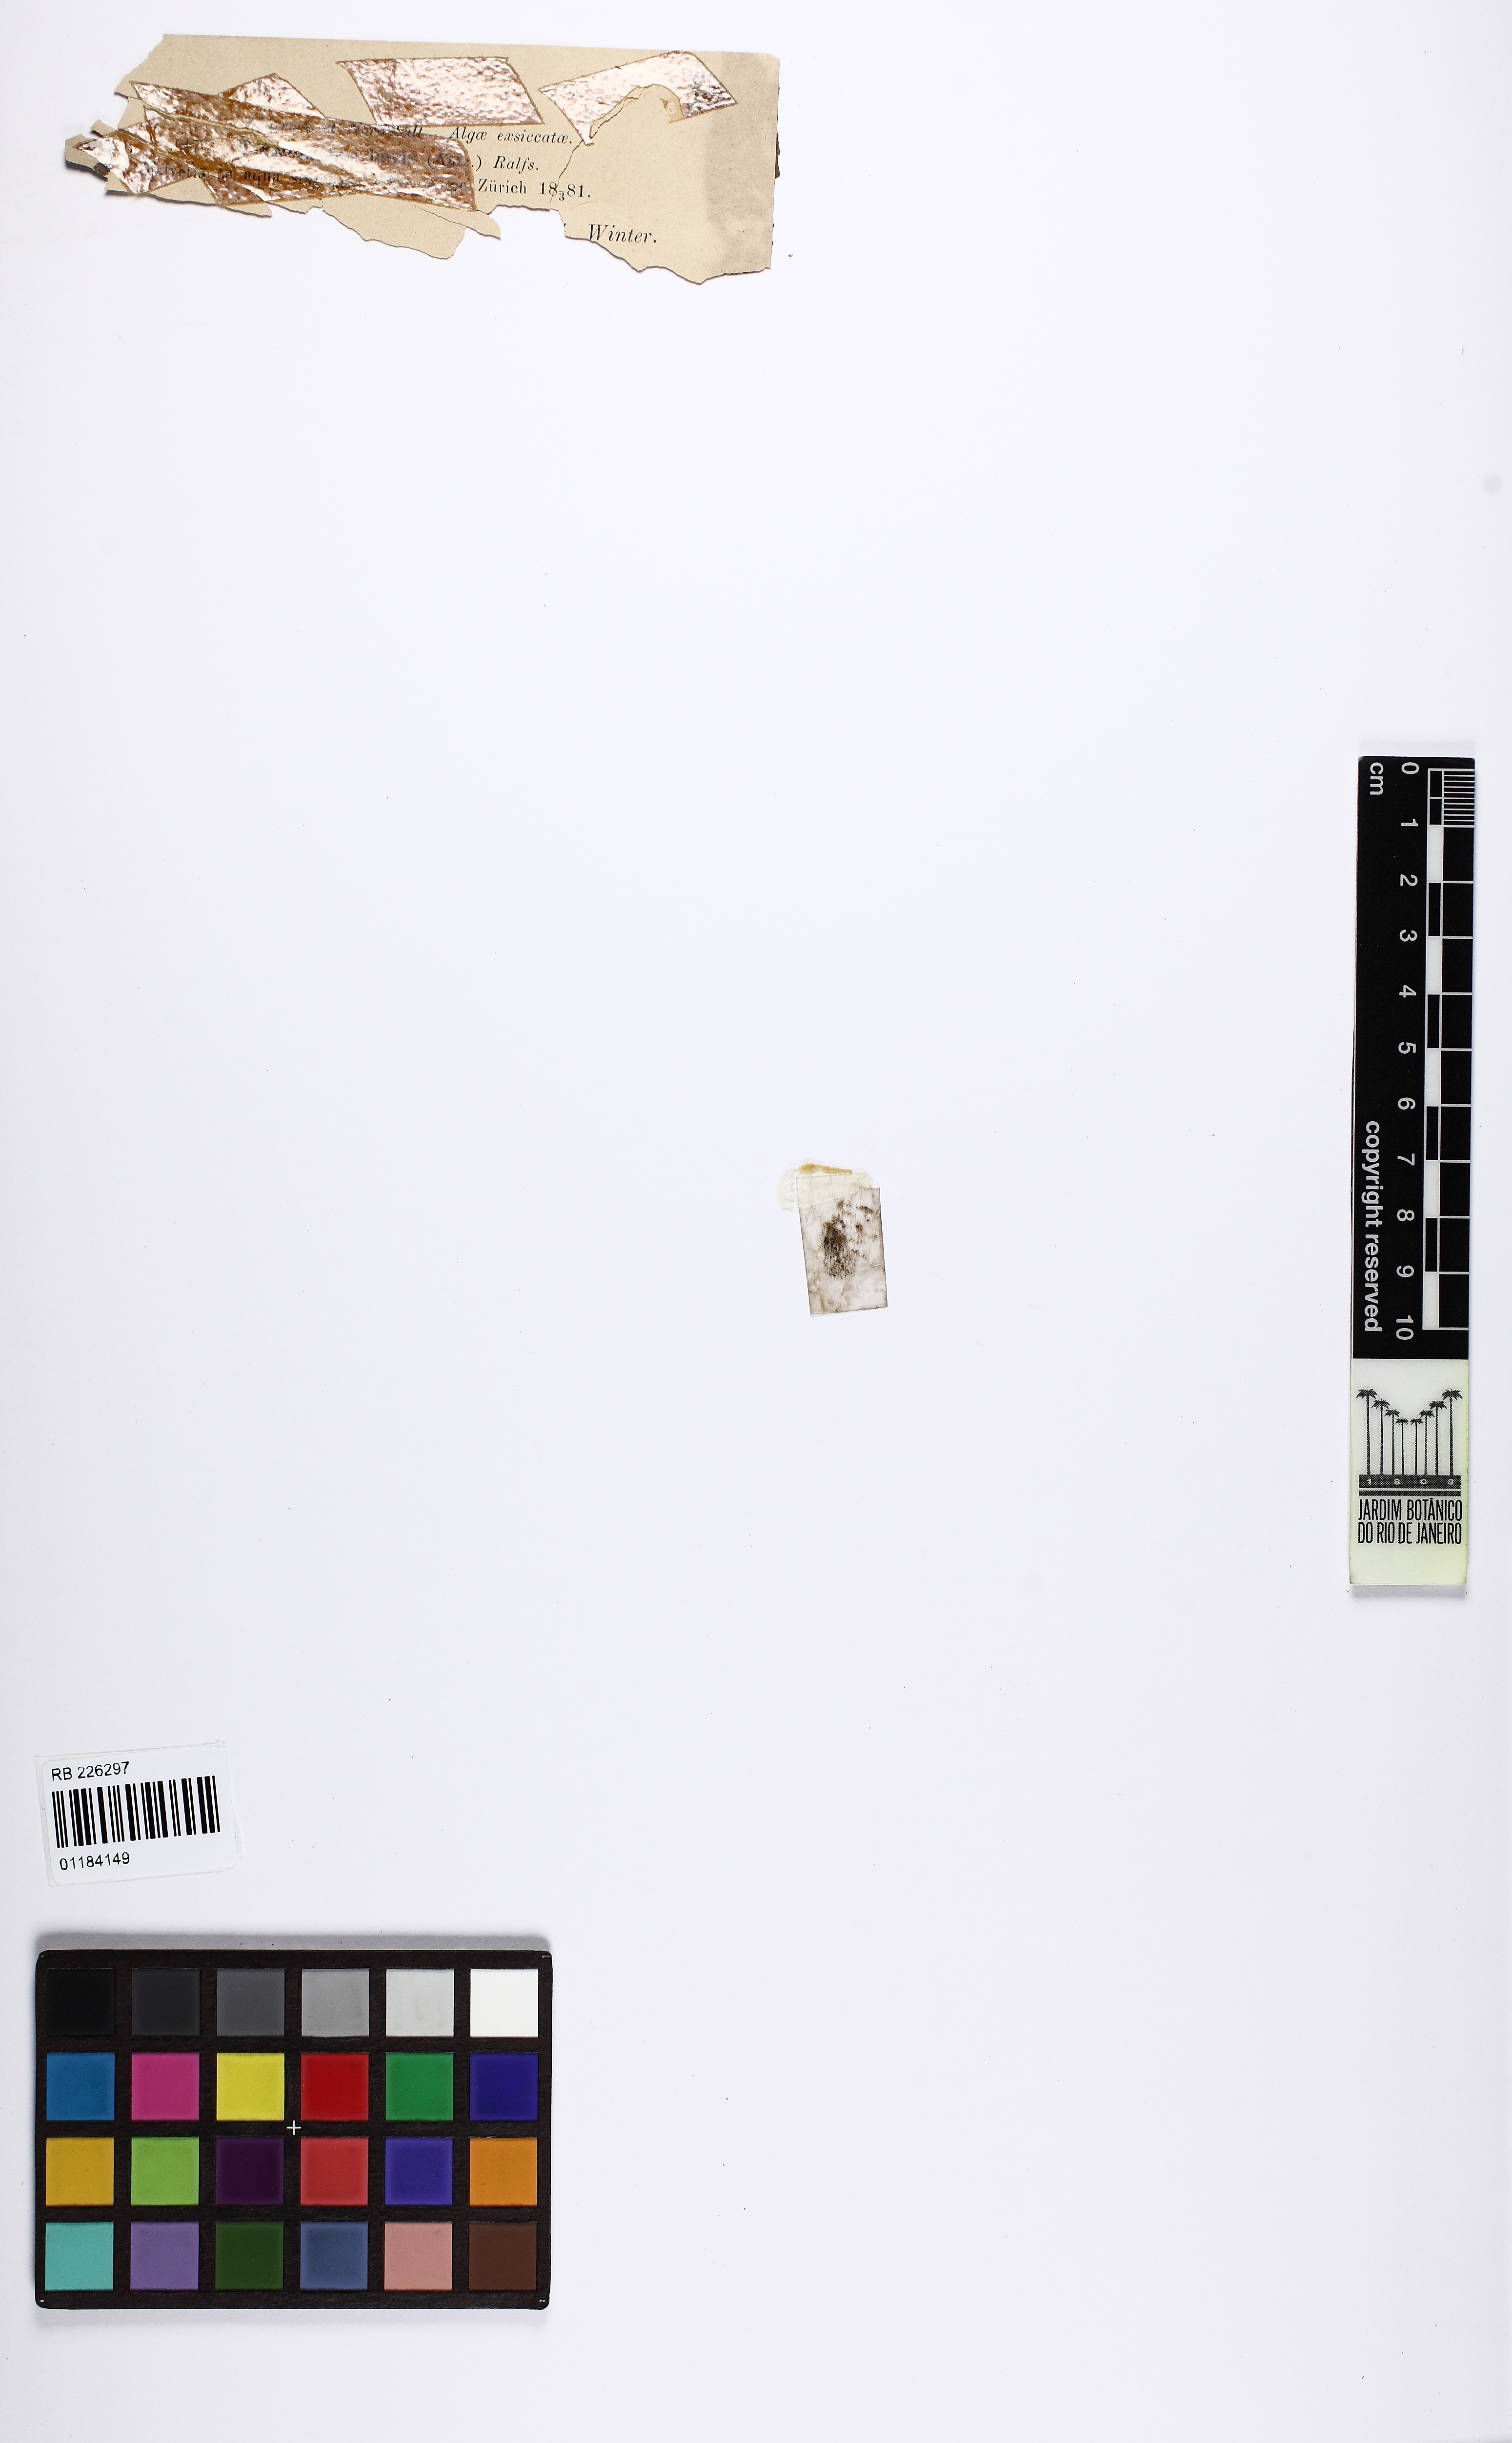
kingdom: Plantae
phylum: Charophyta
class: Conjugatophyceae
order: Desmidiales
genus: Tetmemorus
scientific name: Tetmemorus laevis
